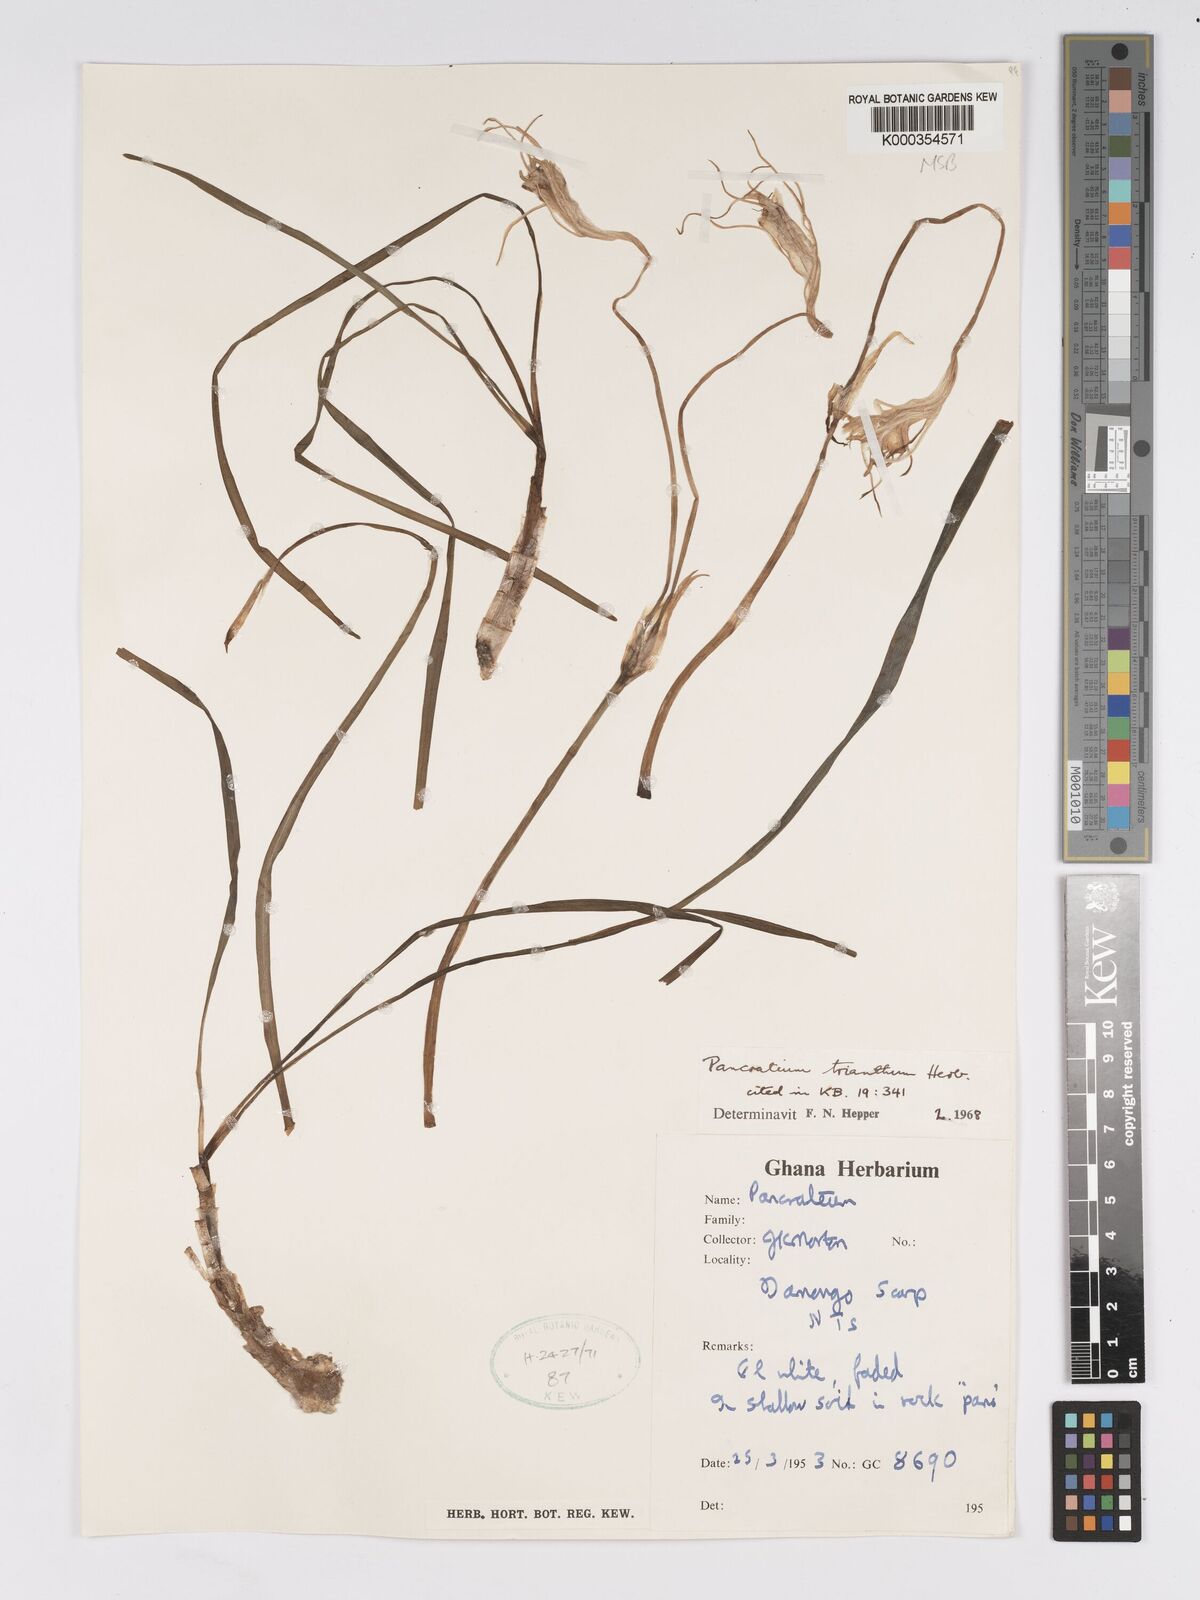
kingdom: Plantae
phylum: Tracheophyta
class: Liliopsida
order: Asparagales
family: Amaryllidaceae
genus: Pancratium
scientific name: Pancratium trianthum
